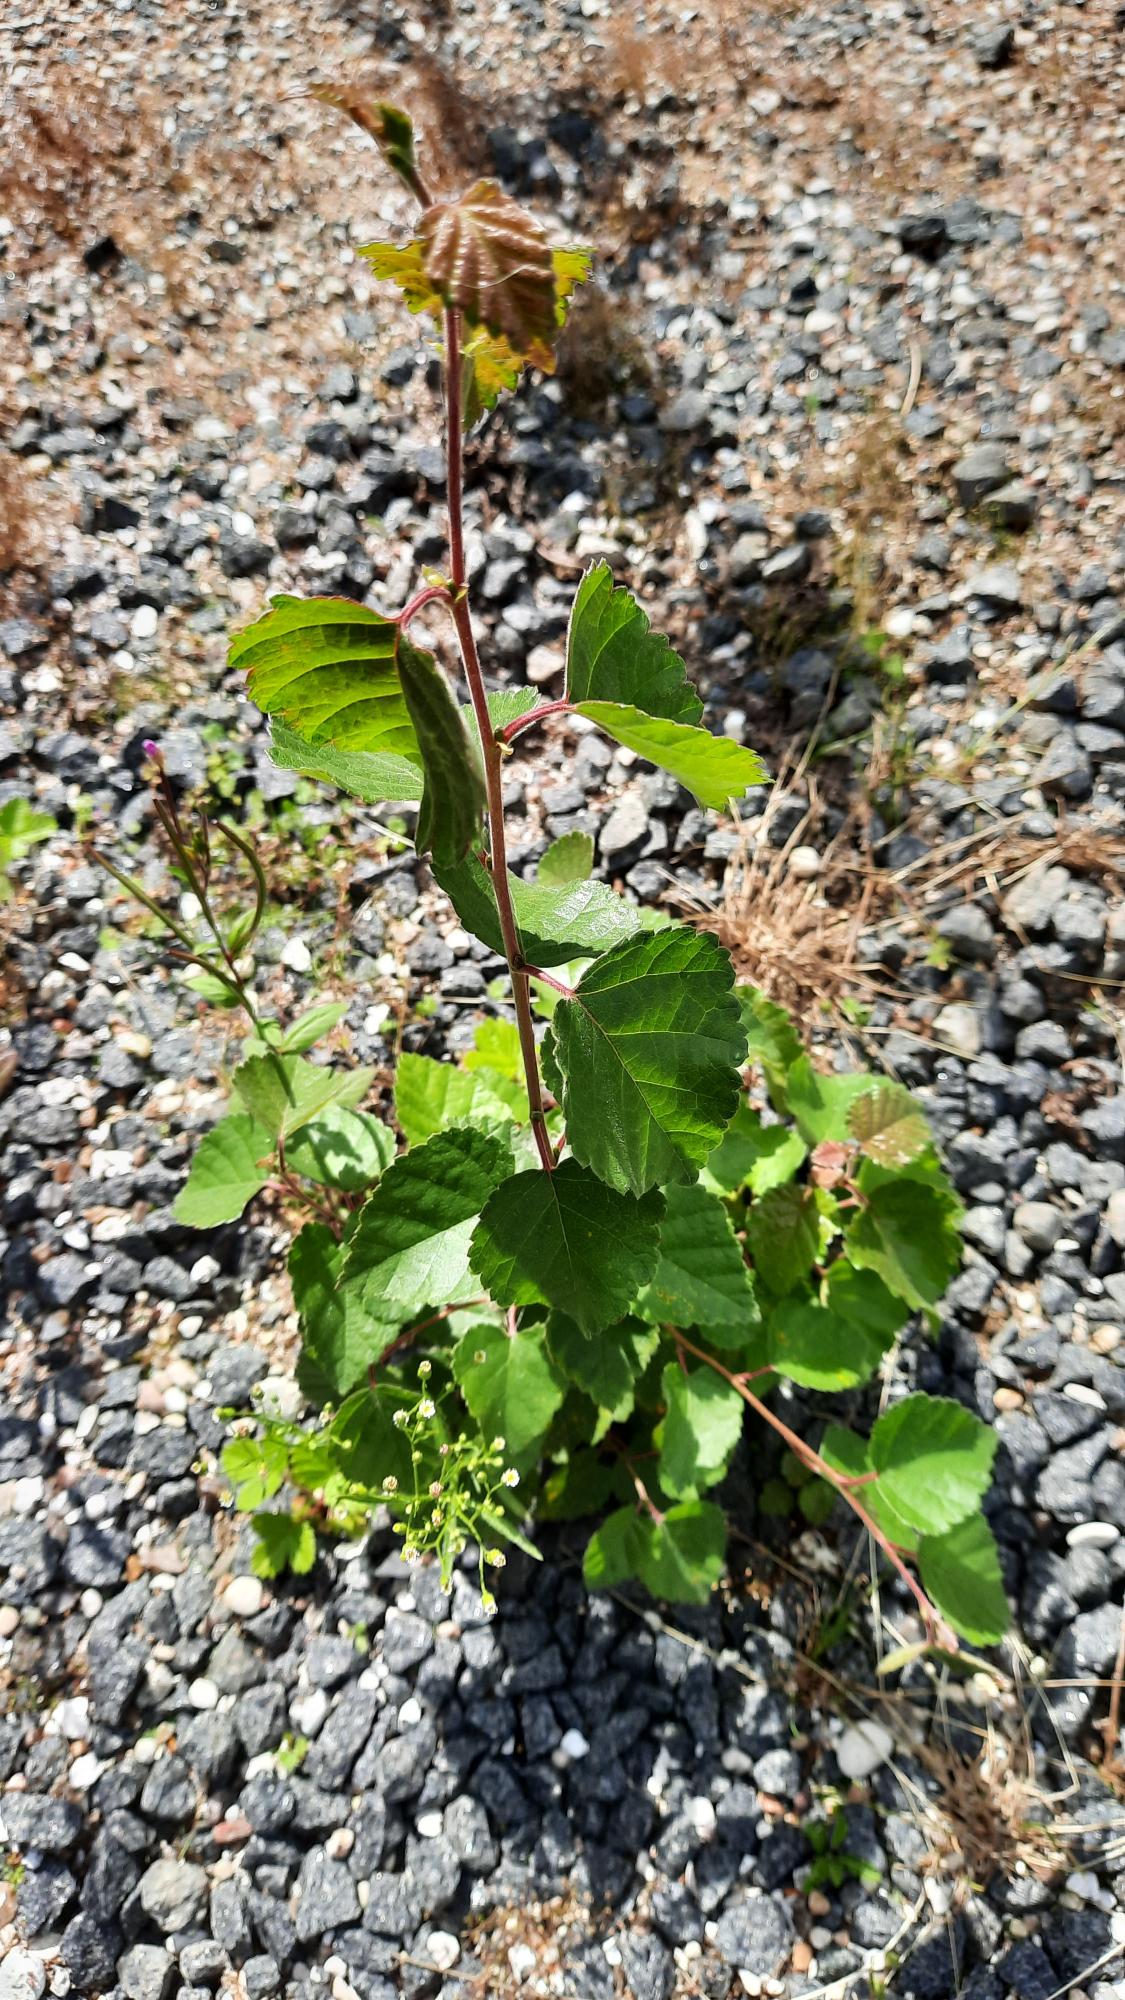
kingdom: Plantae
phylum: Tracheophyta
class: Magnoliopsida
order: Fagales
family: Betulaceae
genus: Betula
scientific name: Betula pendula
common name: Vorte-birk
